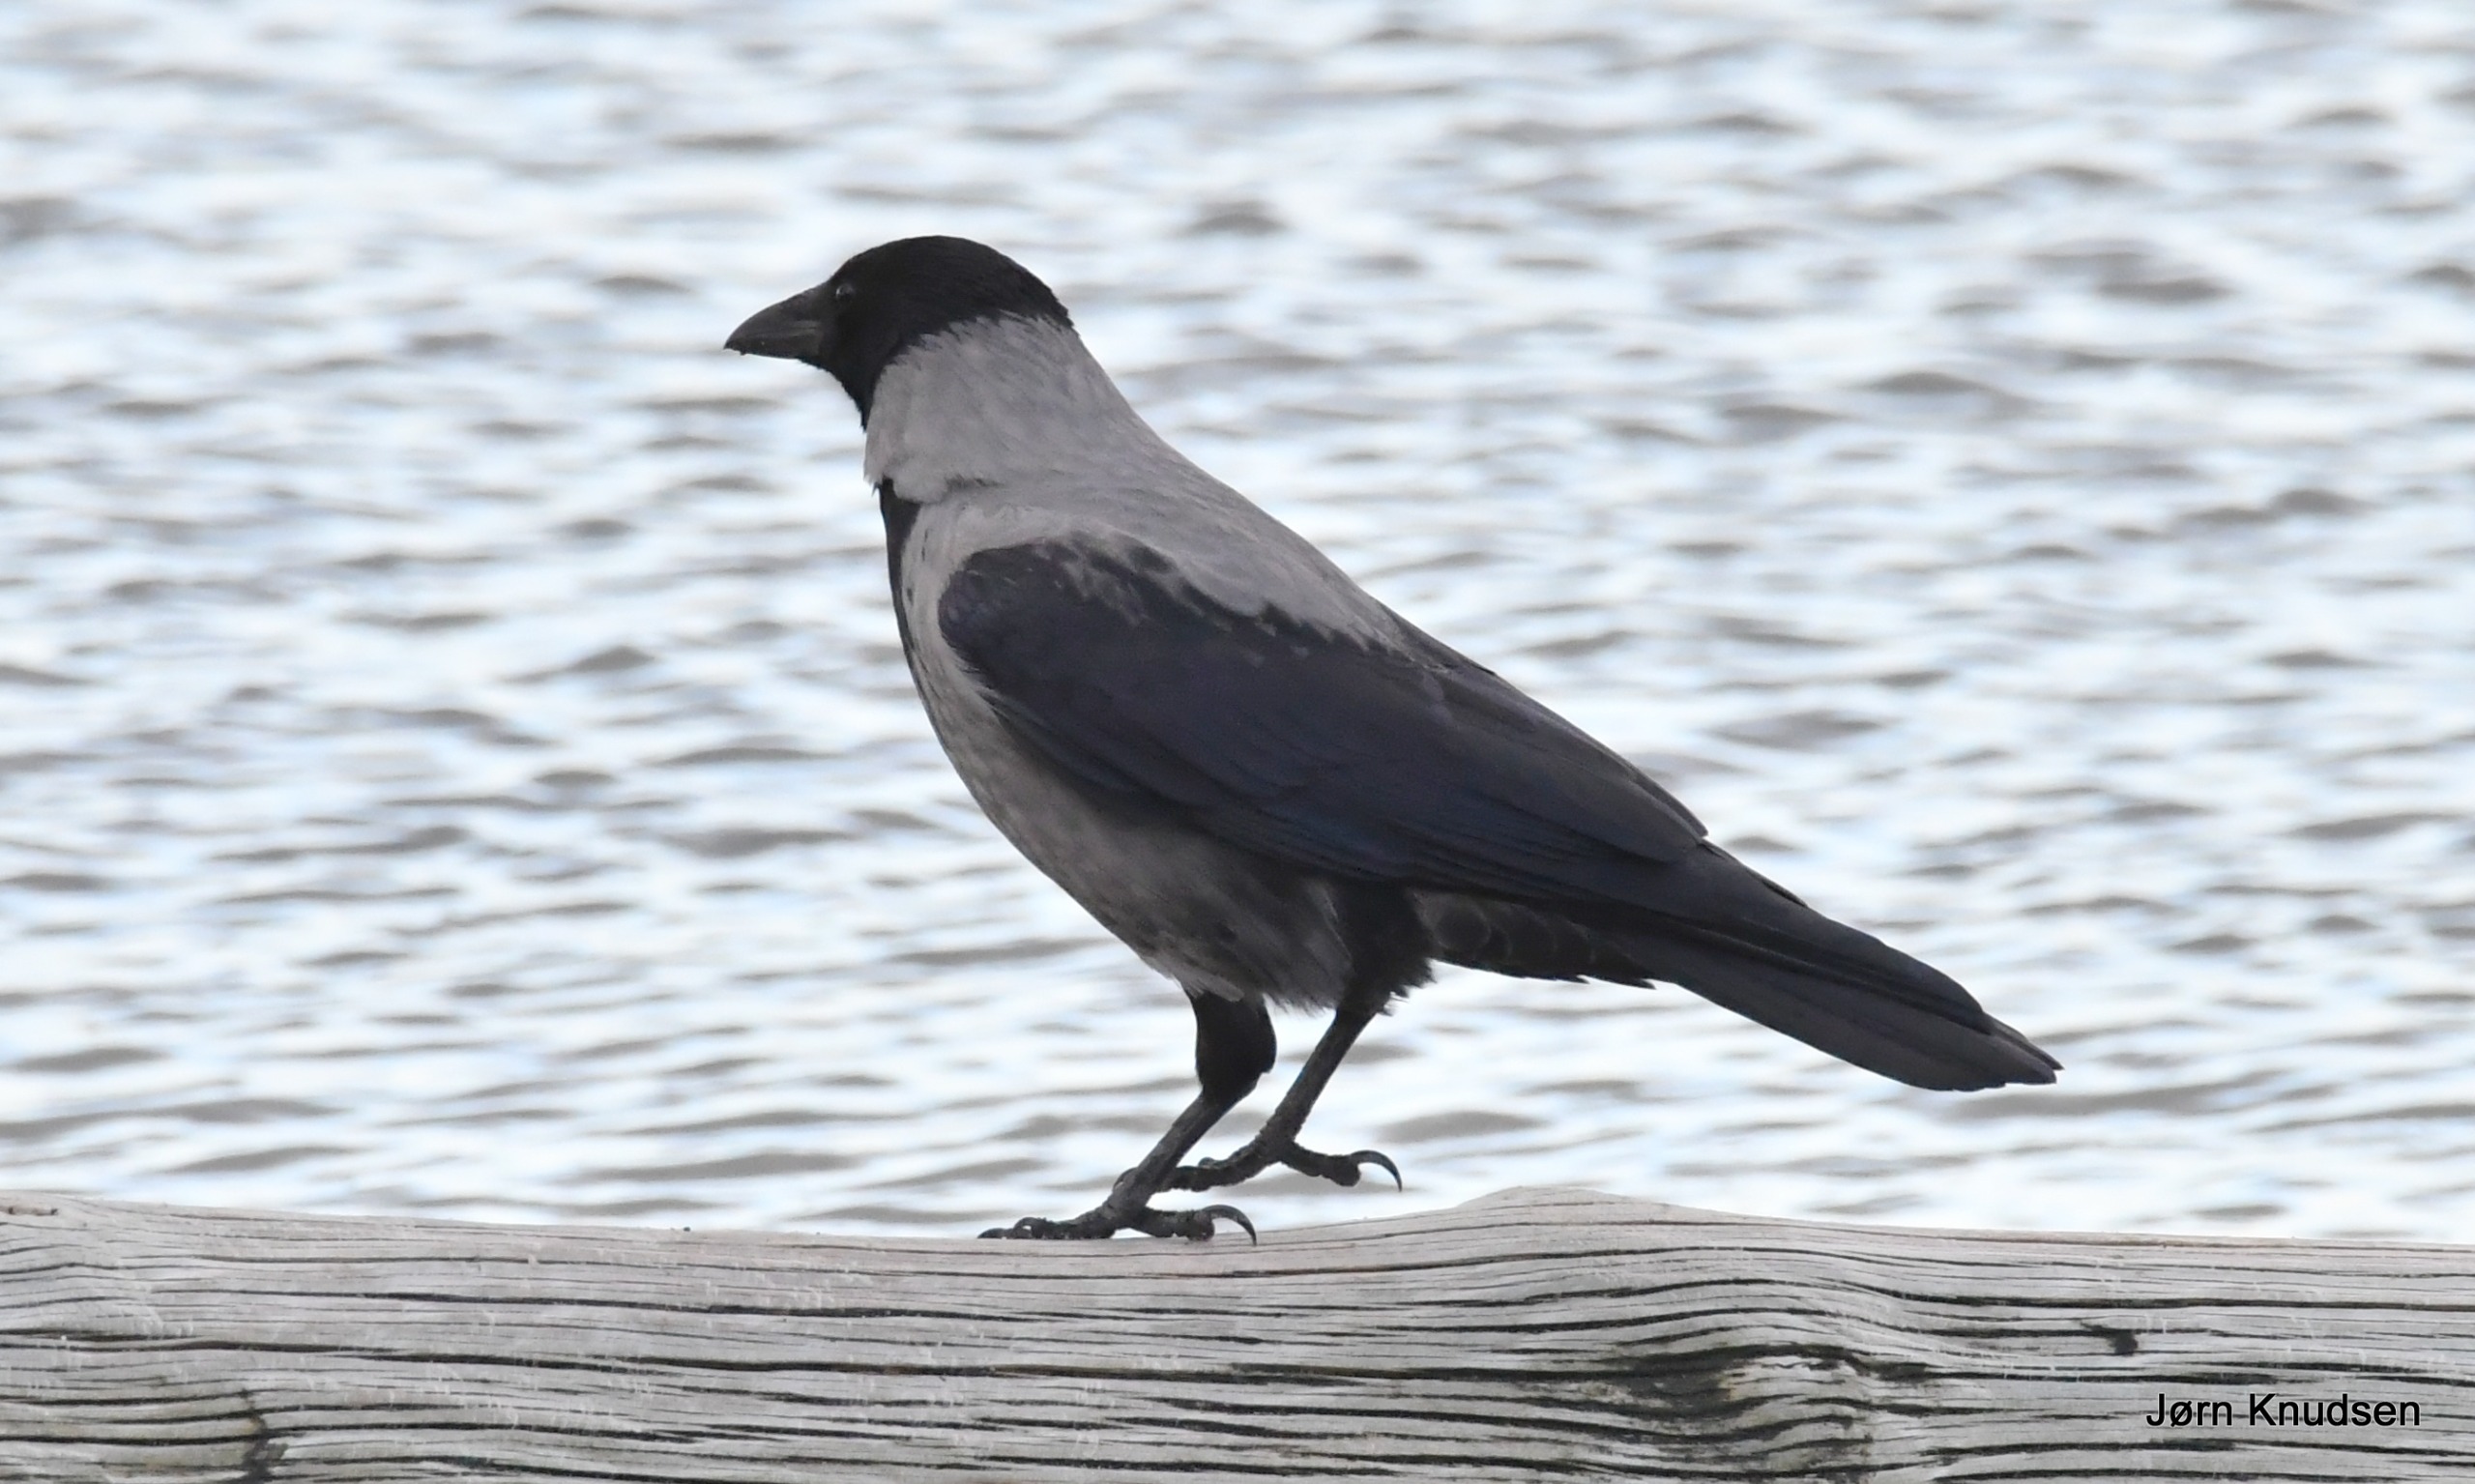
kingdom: Animalia
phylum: Chordata
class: Aves
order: Passeriformes
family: Corvidae
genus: Corvus
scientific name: Corvus cornix
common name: Gråkrage
